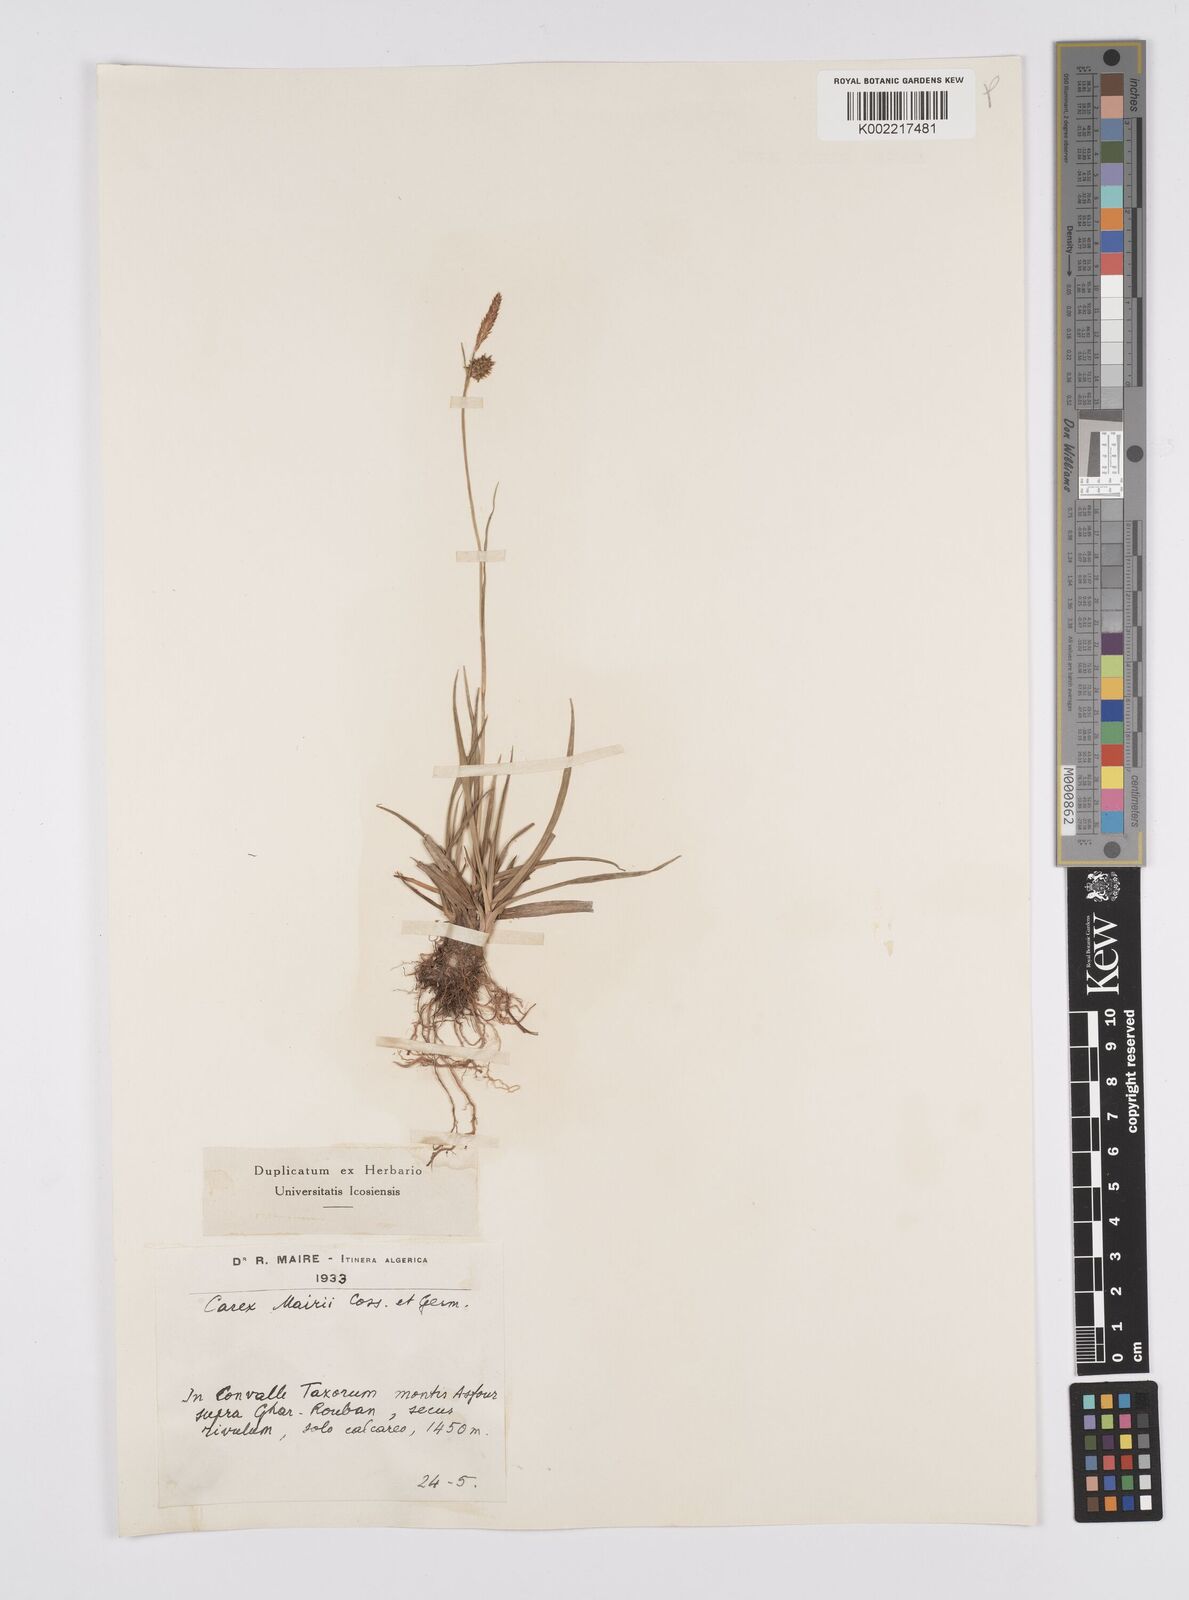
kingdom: Plantae
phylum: Tracheophyta
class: Liliopsida
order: Poales
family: Cyperaceae
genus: Carex
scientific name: Carex mairei
